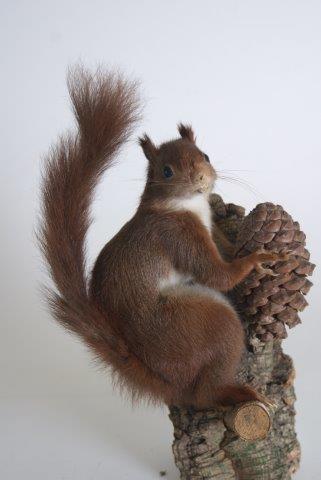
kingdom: Animalia
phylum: Chordata
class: Mammalia
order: Rodentia
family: Sciuridae
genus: Sciurus
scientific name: Sciurus vulgaris
